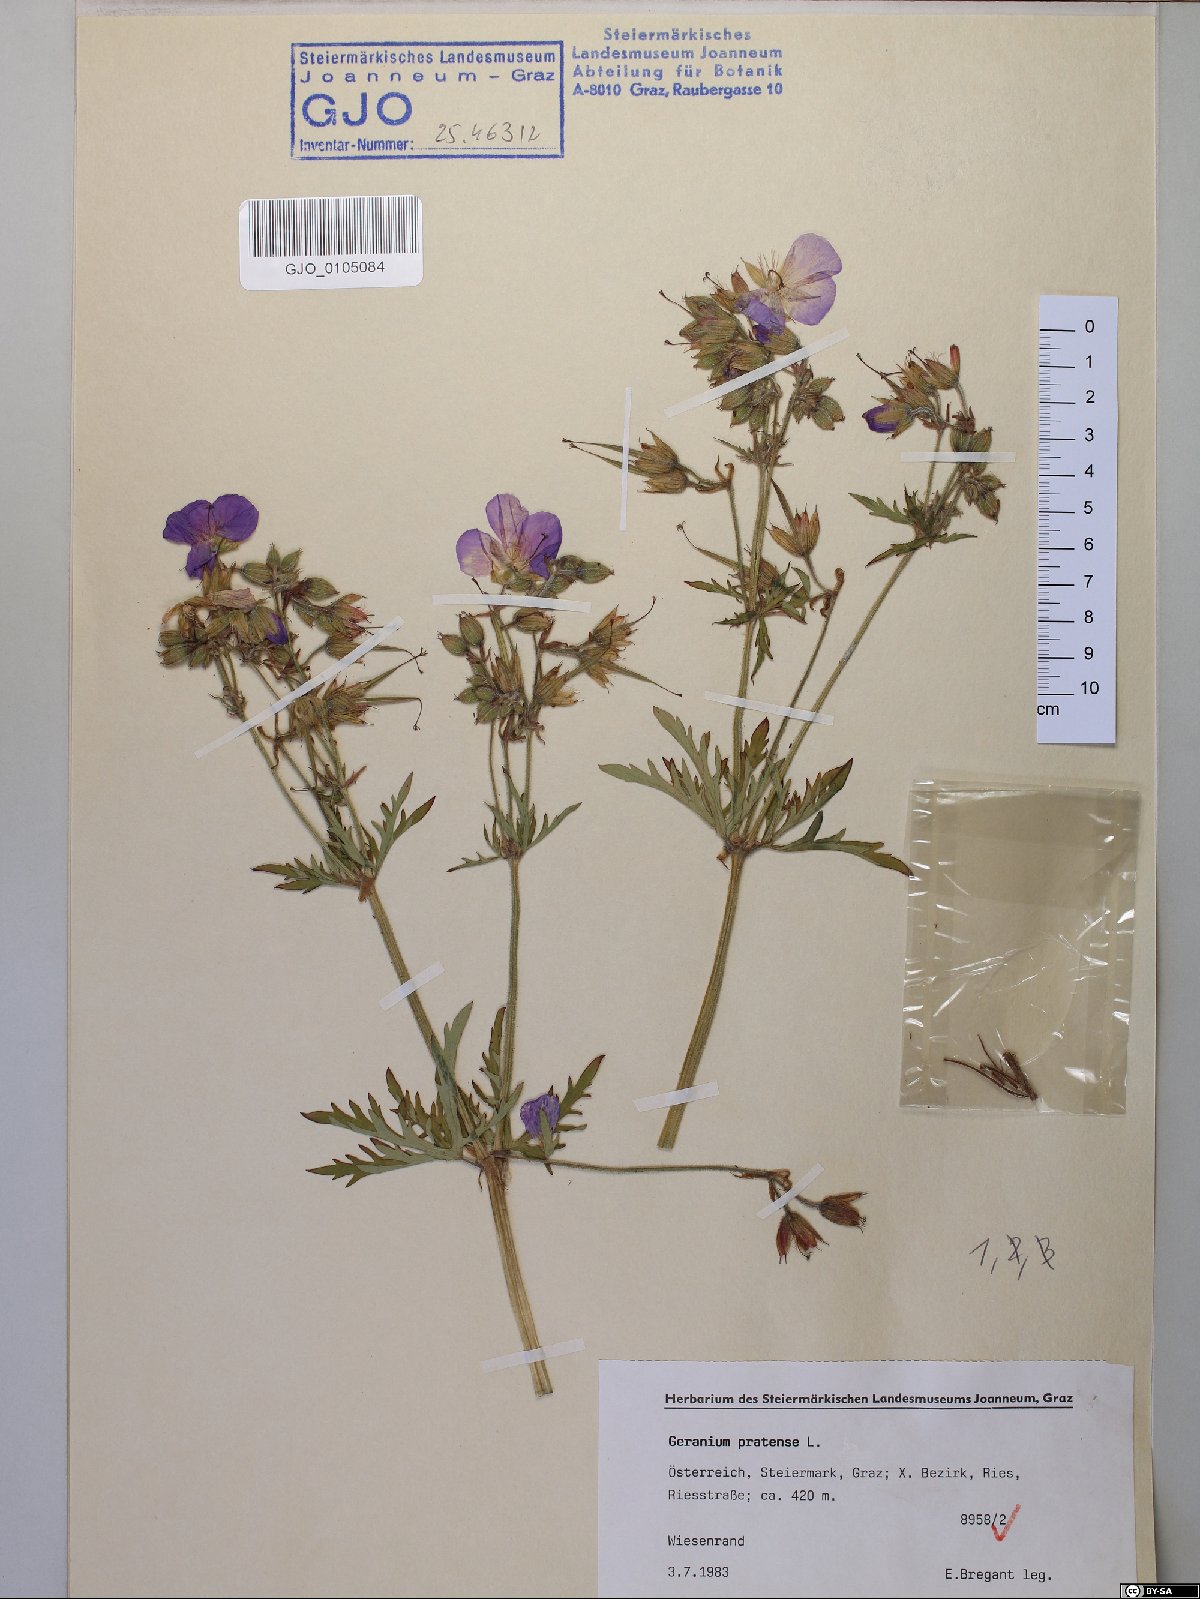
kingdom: Plantae
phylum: Tracheophyta
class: Magnoliopsida
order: Geraniales
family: Geraniaceae
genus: Geranium
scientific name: Geranium pratense
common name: Meadow crane's-bill
